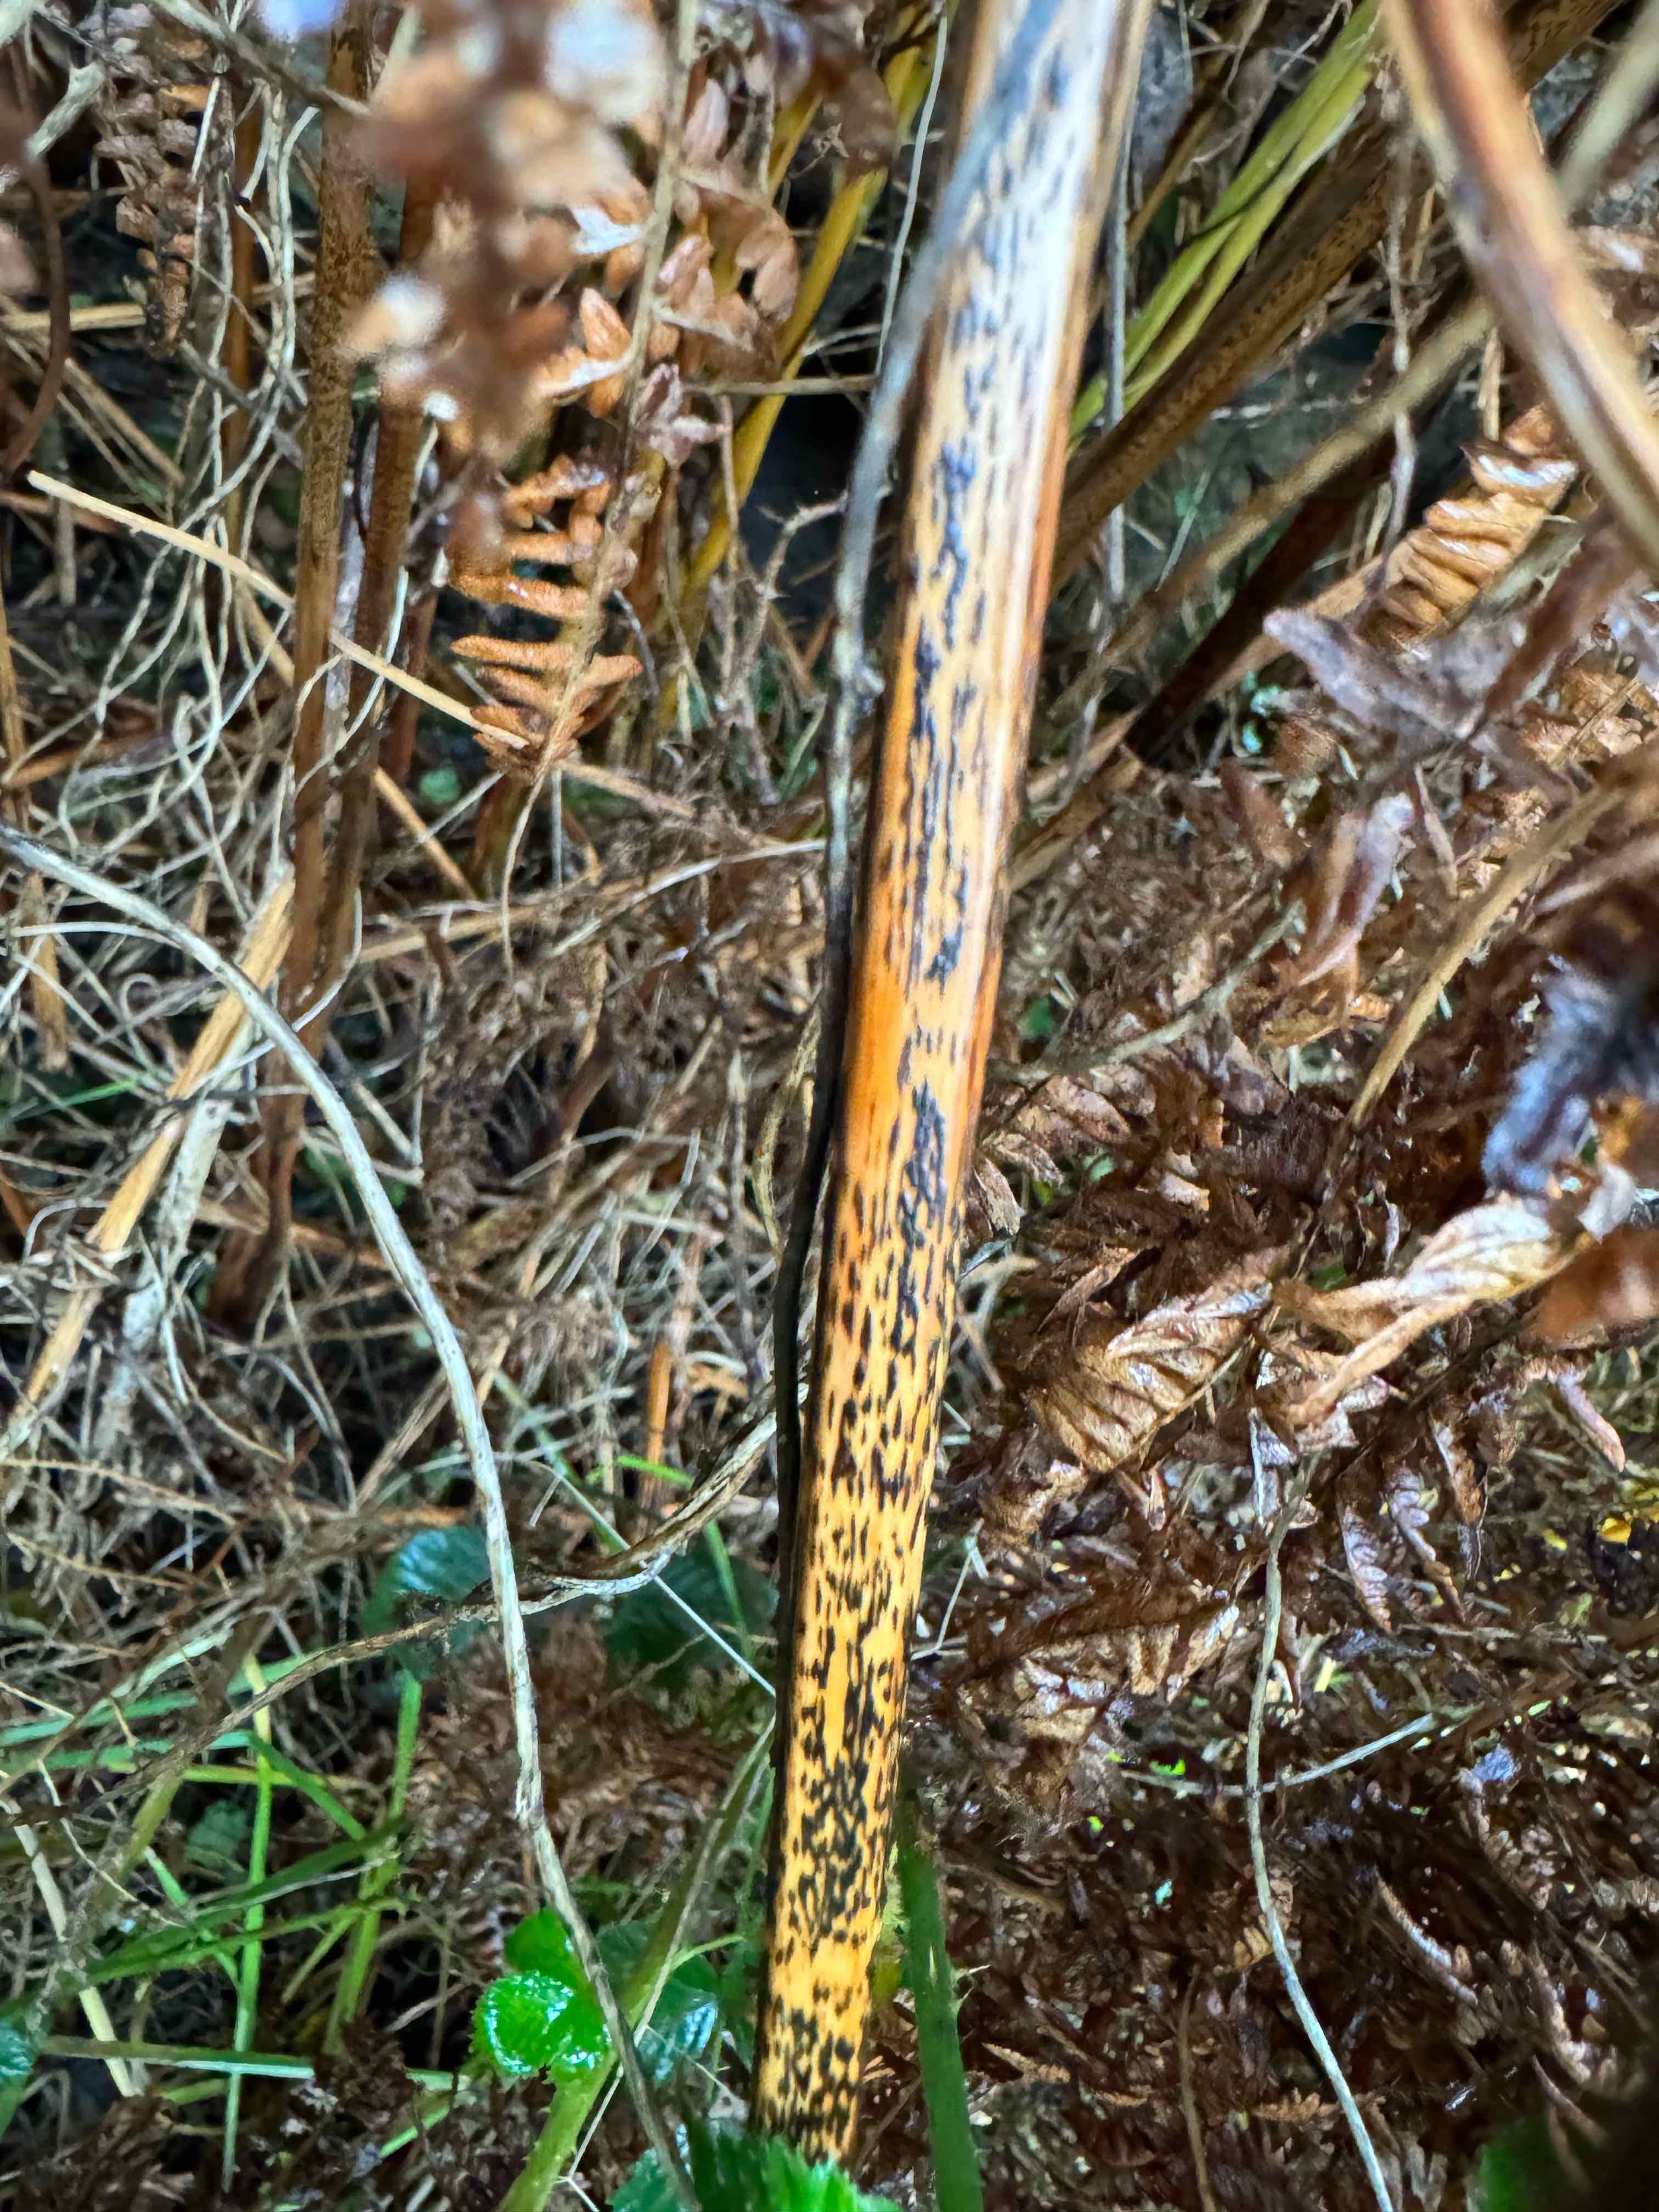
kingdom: Fungi
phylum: Ascomycota
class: Dothideomycetes
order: Pleosporales
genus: Rhopographus
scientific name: Rhopographus filicinus
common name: Bracken map
